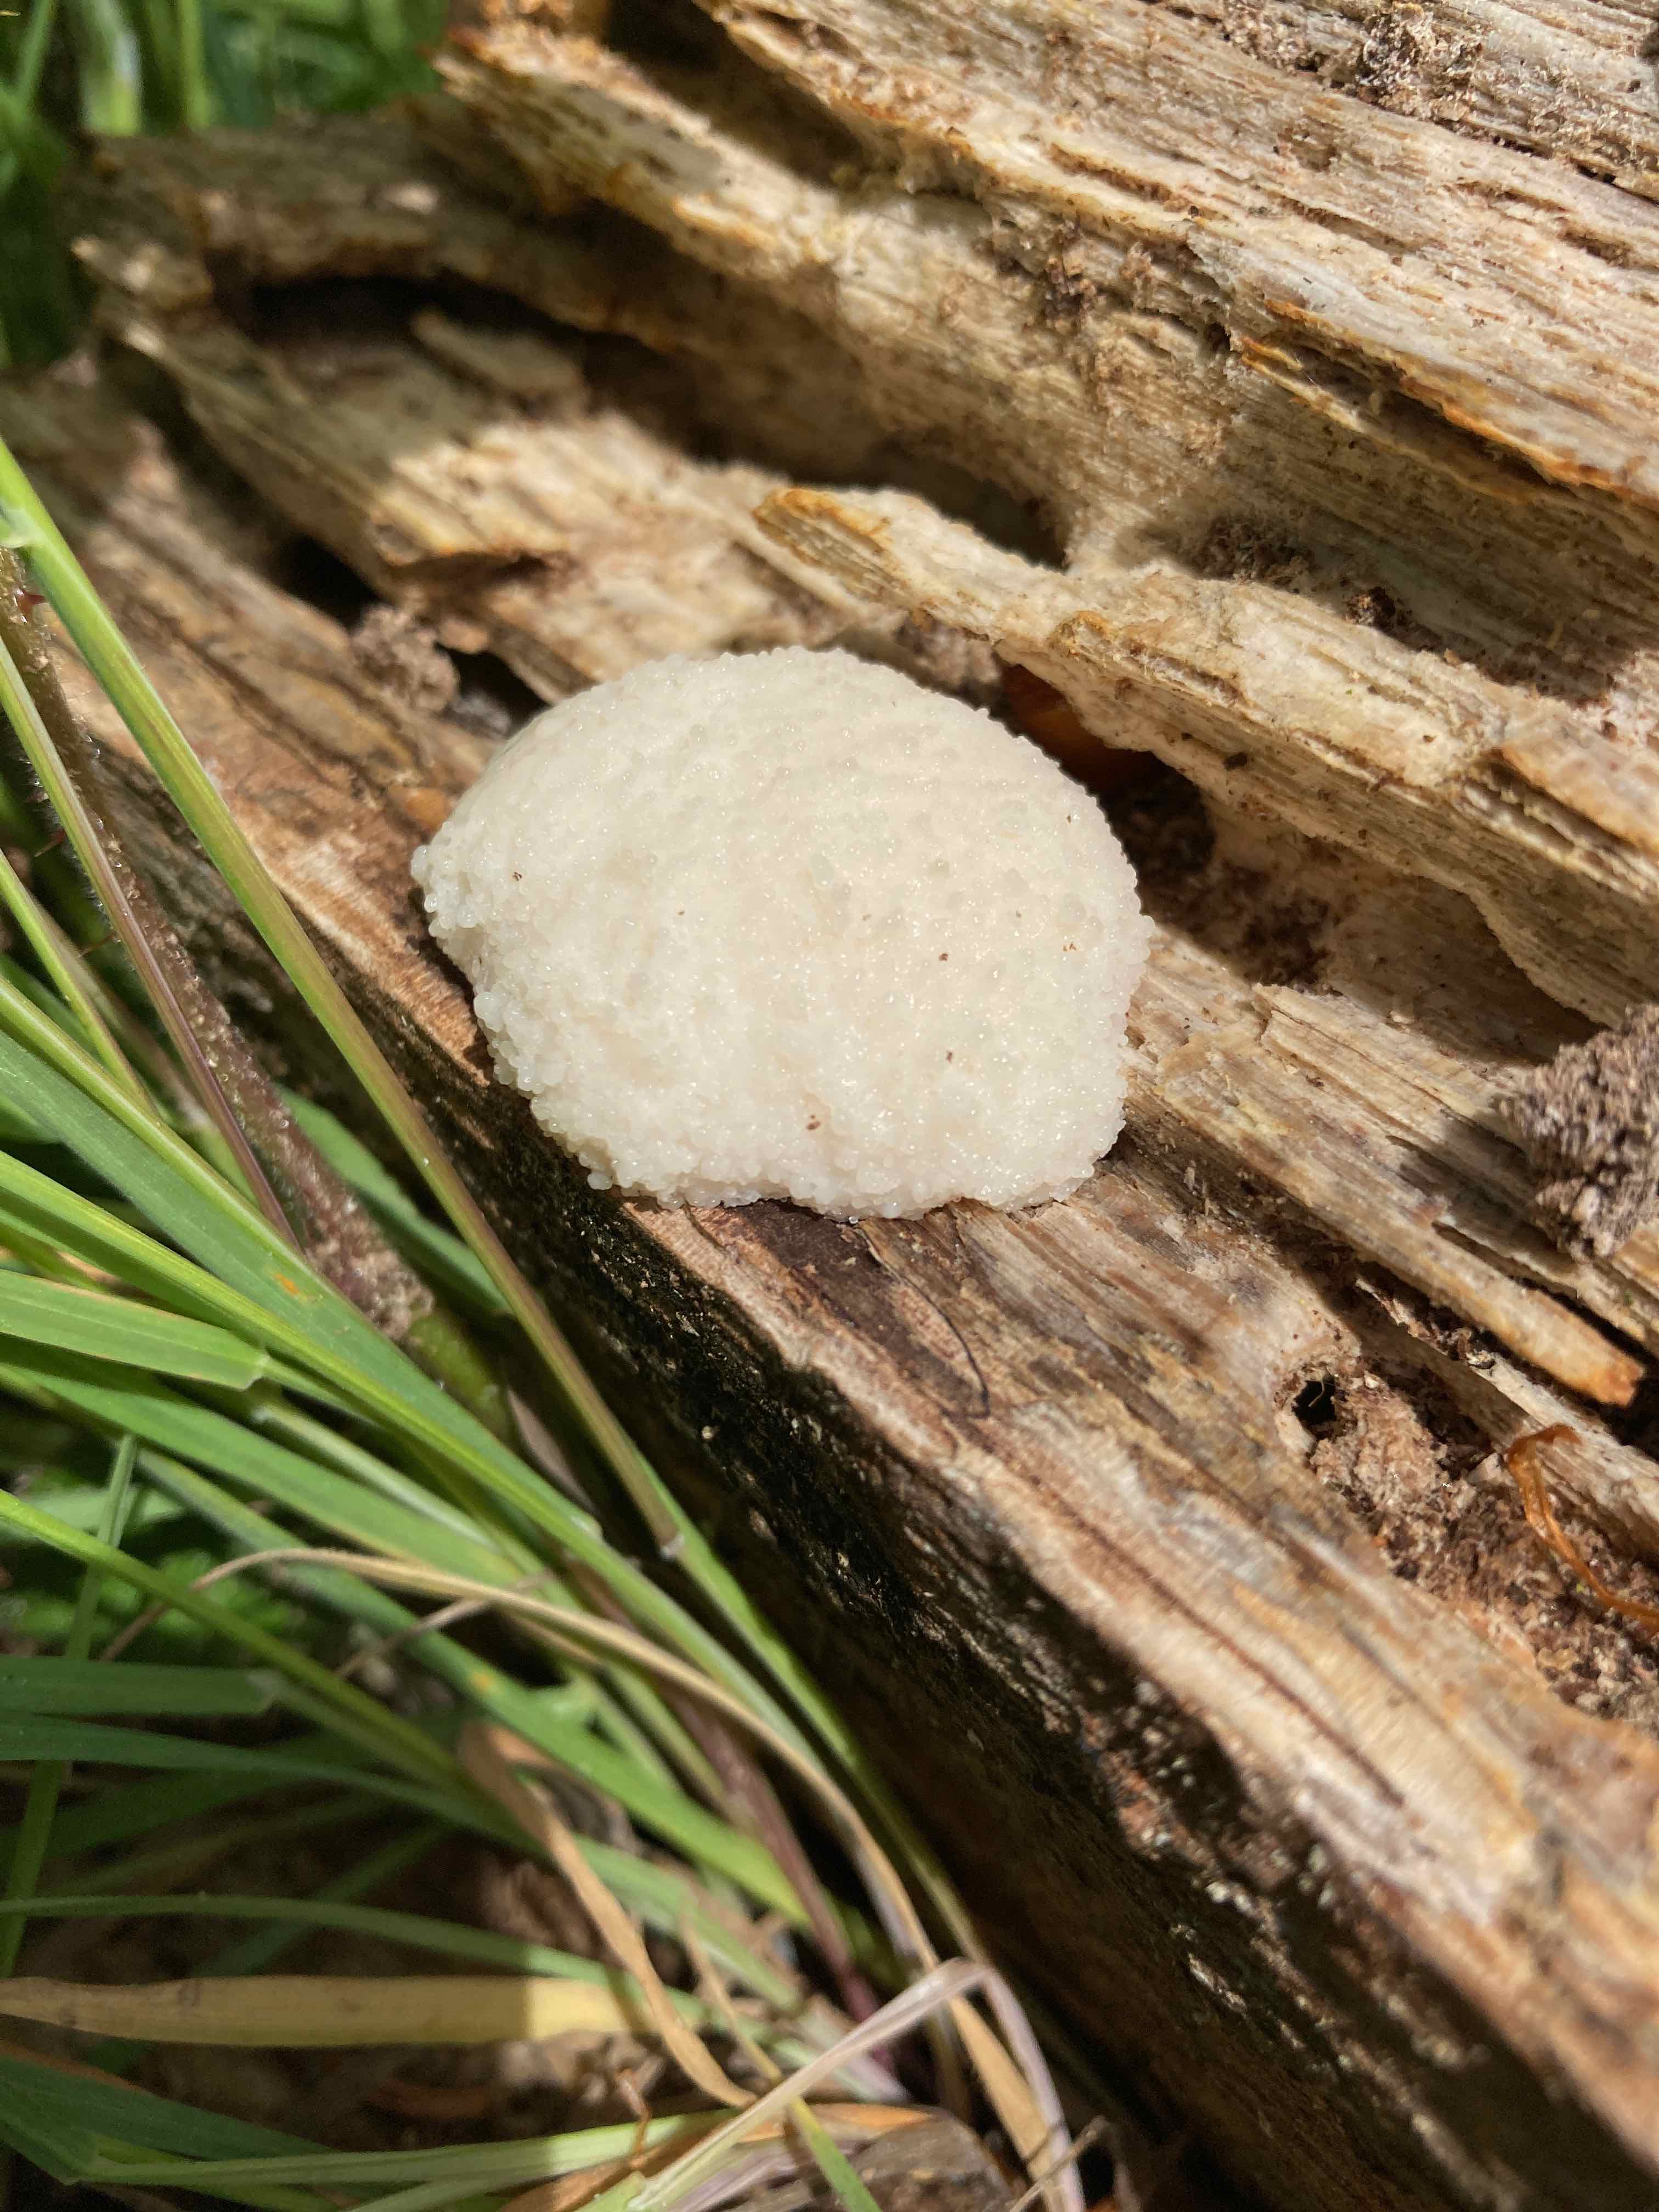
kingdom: Protozoa
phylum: Mycetozoa
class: Myxomycetes
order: Cribrariales
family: Tubiferaceae
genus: Reticularia
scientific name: Reticularia lycoperdon
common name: skinnende støvpude
